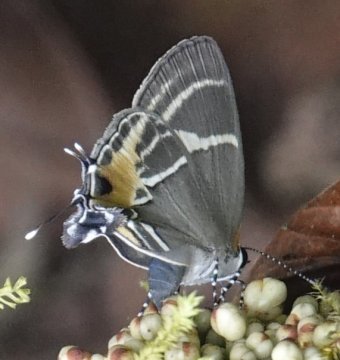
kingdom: Animalia
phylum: Arthropoda
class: Insecta
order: Lepidoptera
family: Lycaenidae
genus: Thecla
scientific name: Thecla terentia
